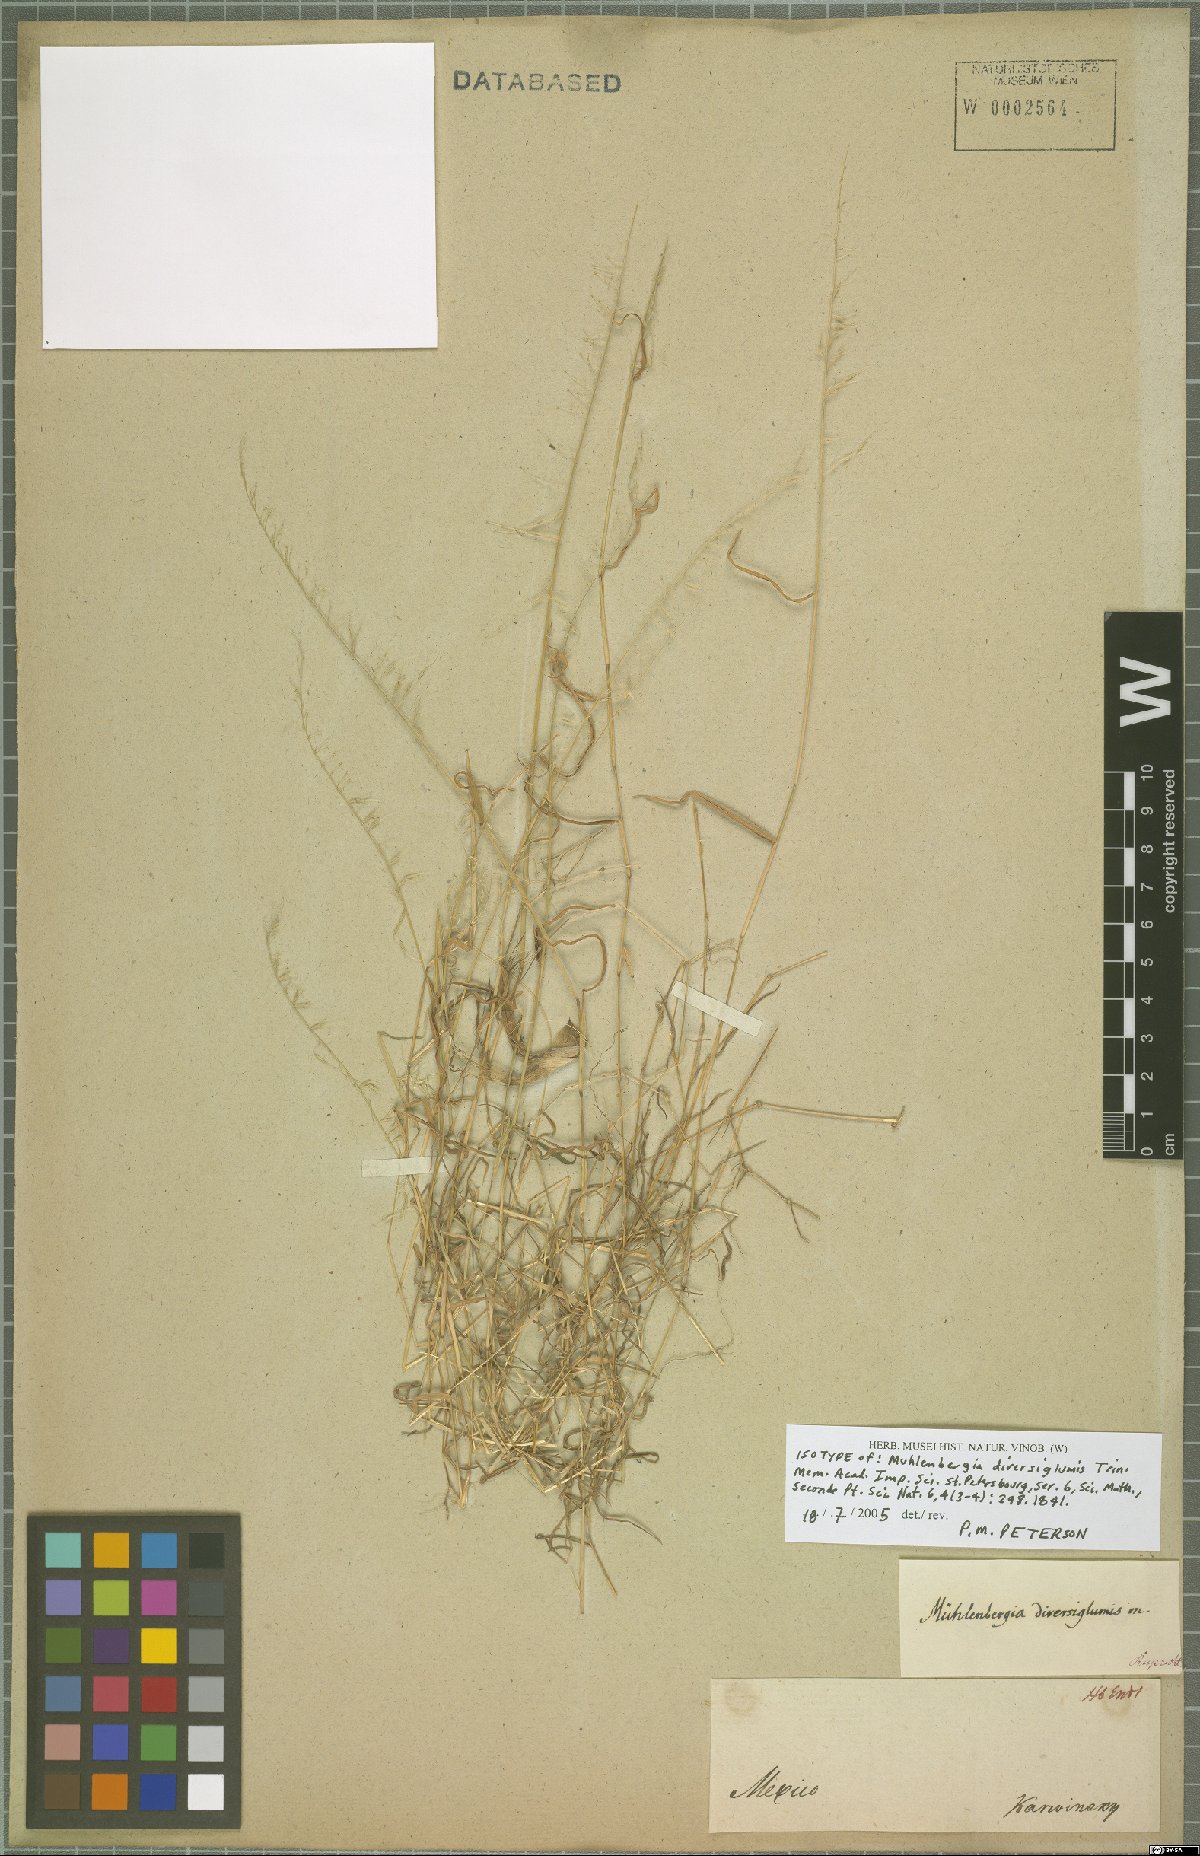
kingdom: Plantae
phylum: Tracheophyta
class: Liliopsida
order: Poales
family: Poaceae
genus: Muhlenbergia
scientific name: Muhlenbergia diversiglumis
